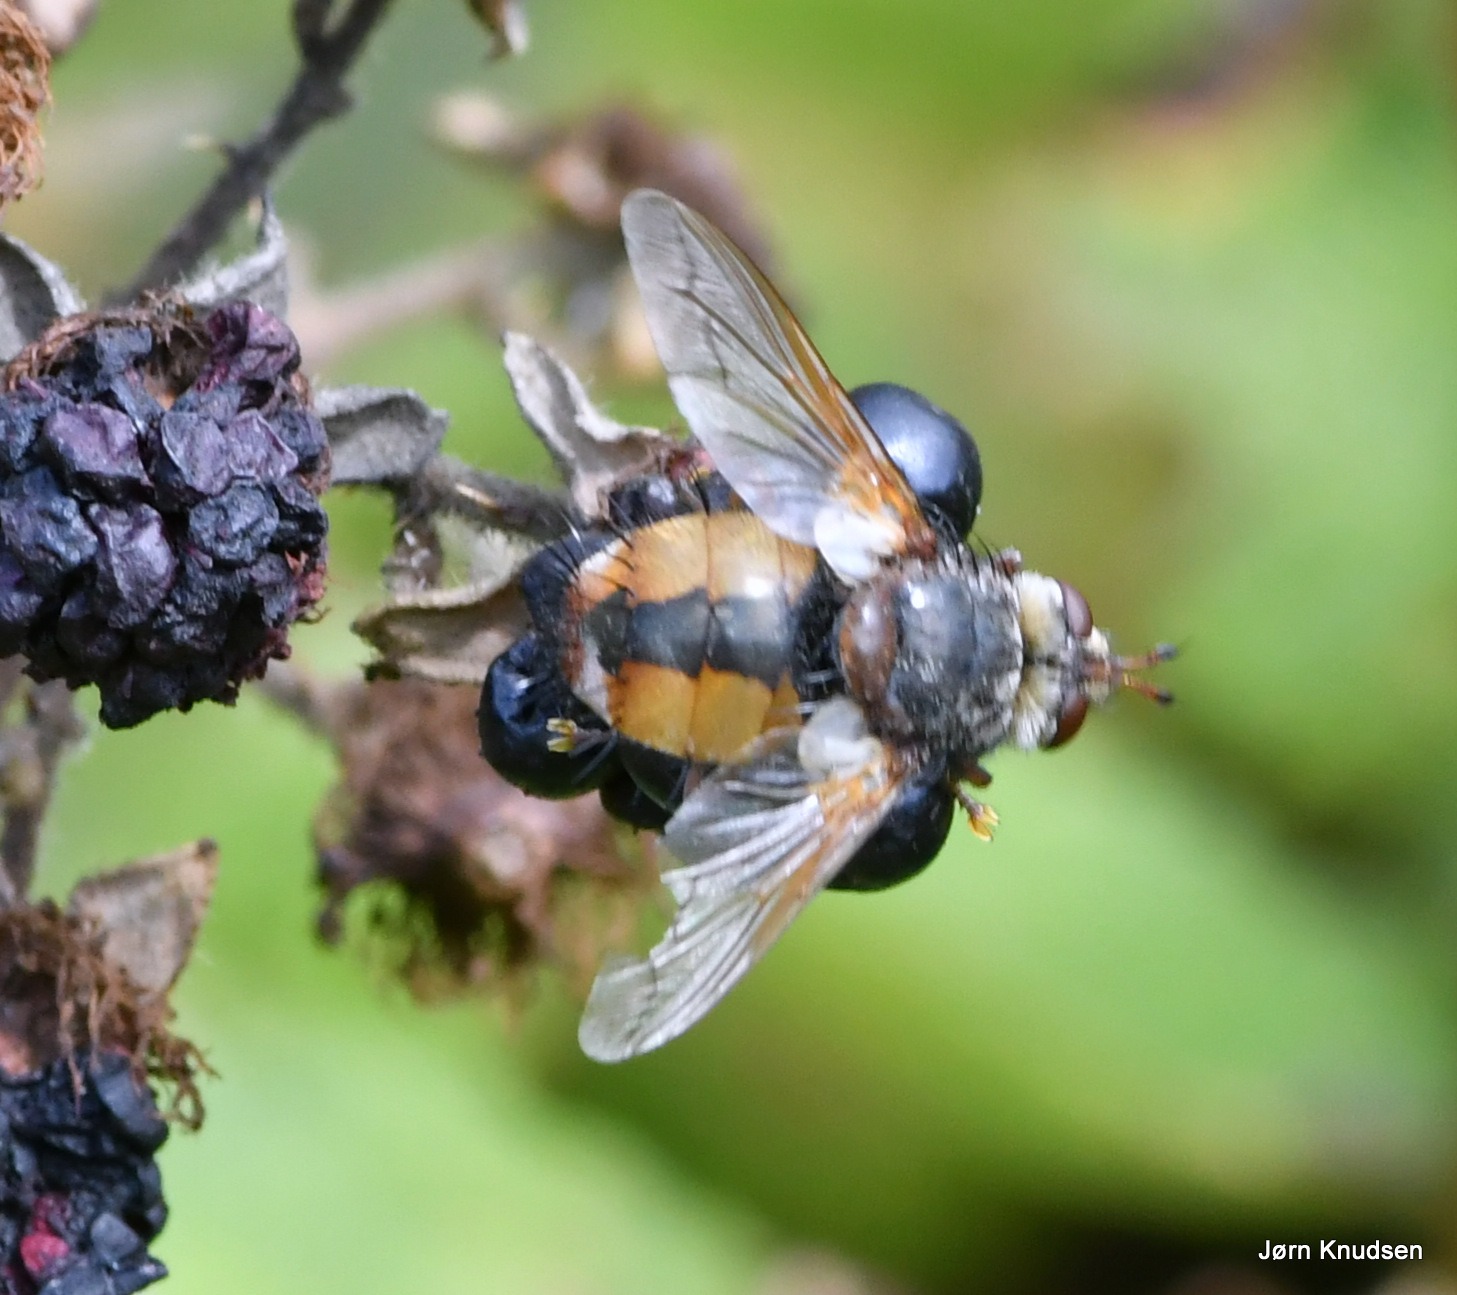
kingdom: Animalia
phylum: Arthropoda
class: Insecta
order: Diptera
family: Tachinidae
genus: Tachina
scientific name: Tachina fera
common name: Mellemfluen oskar
